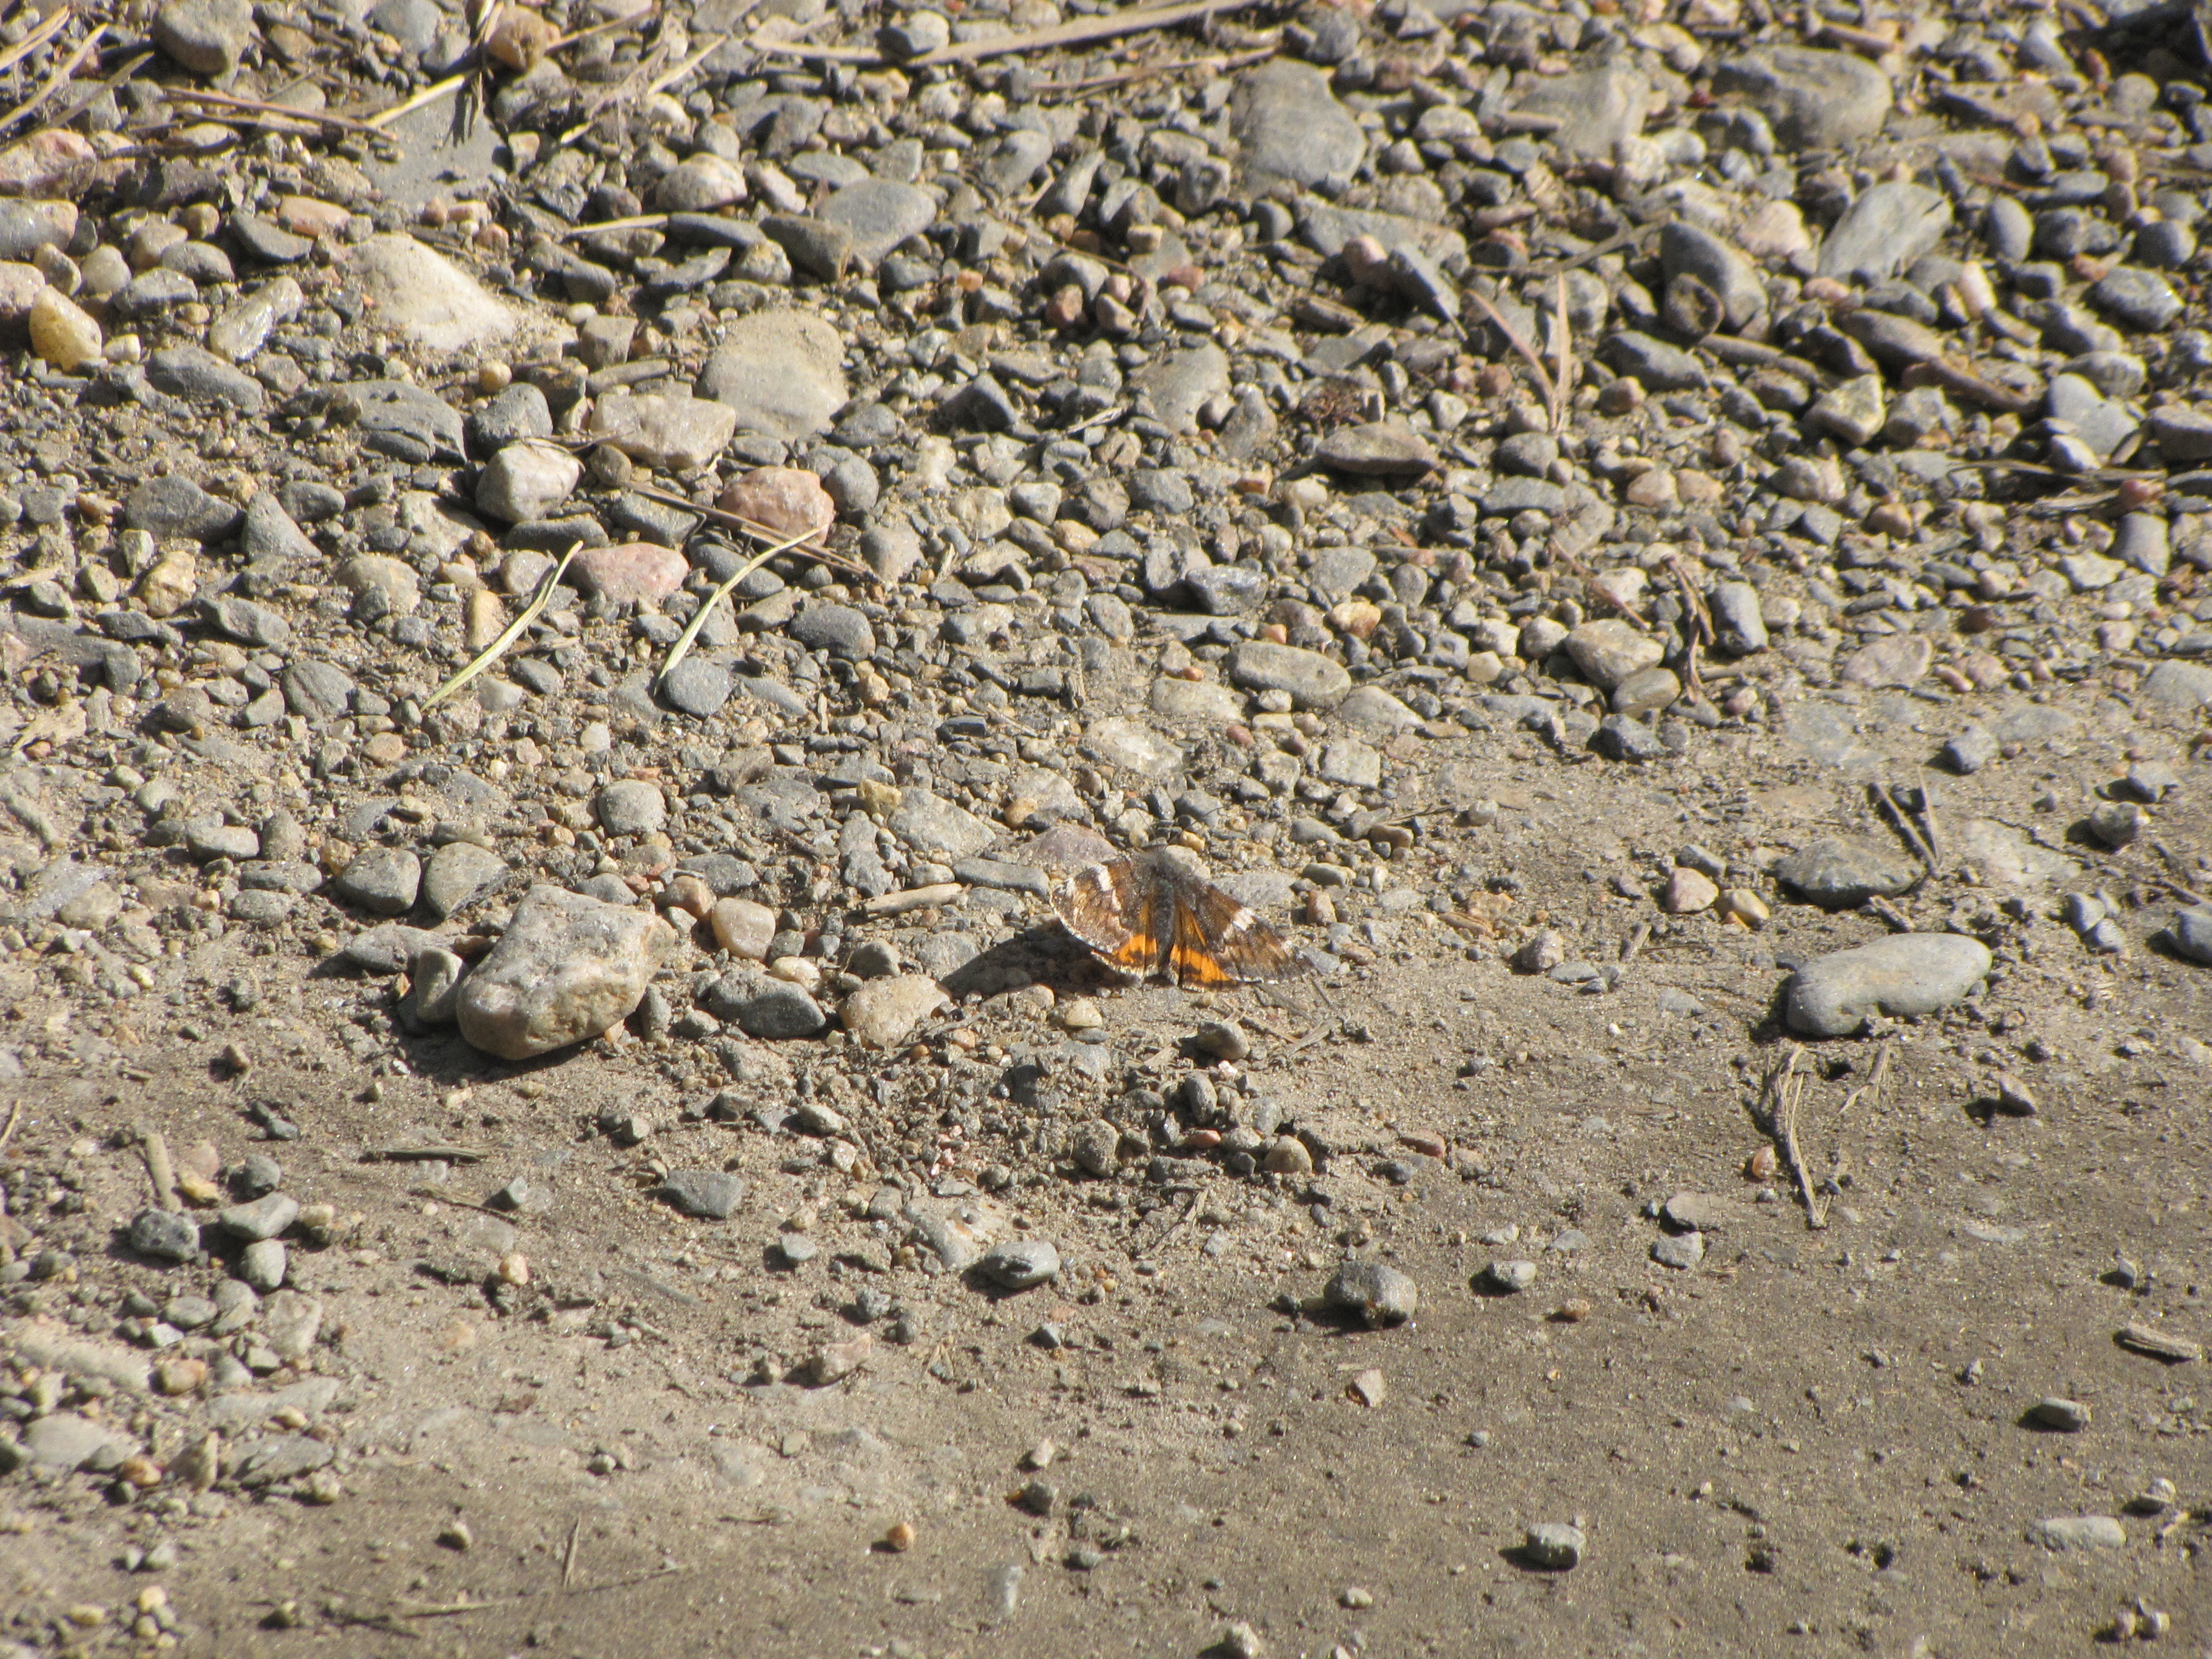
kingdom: Animalia
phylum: Arthropoda
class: Insecta
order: Lepidoptera
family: Geometridae
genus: Archiearis
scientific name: Archiearis parthenias
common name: Orange underwing
